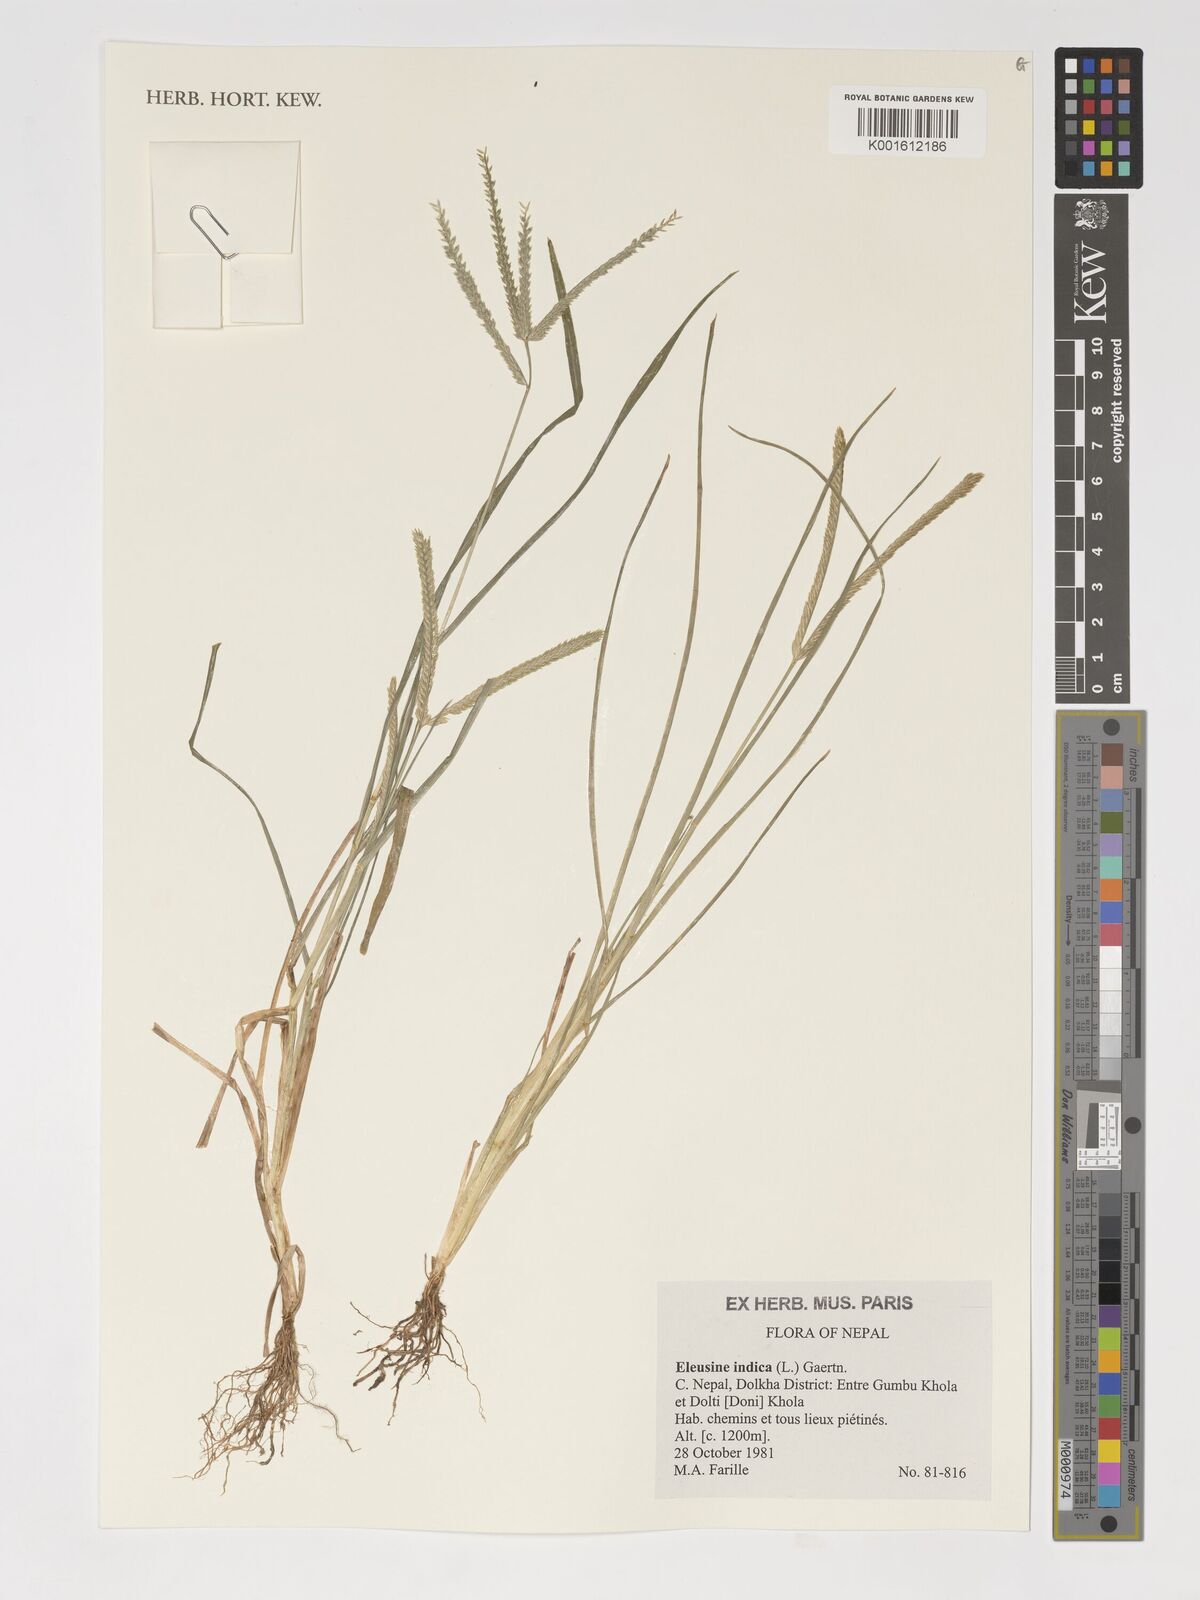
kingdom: Plantae
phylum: Tracheophyta
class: Liliopsida
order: Poales
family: Poaceae
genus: Eleusine
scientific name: Eleusine indica
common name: Yard-grass
